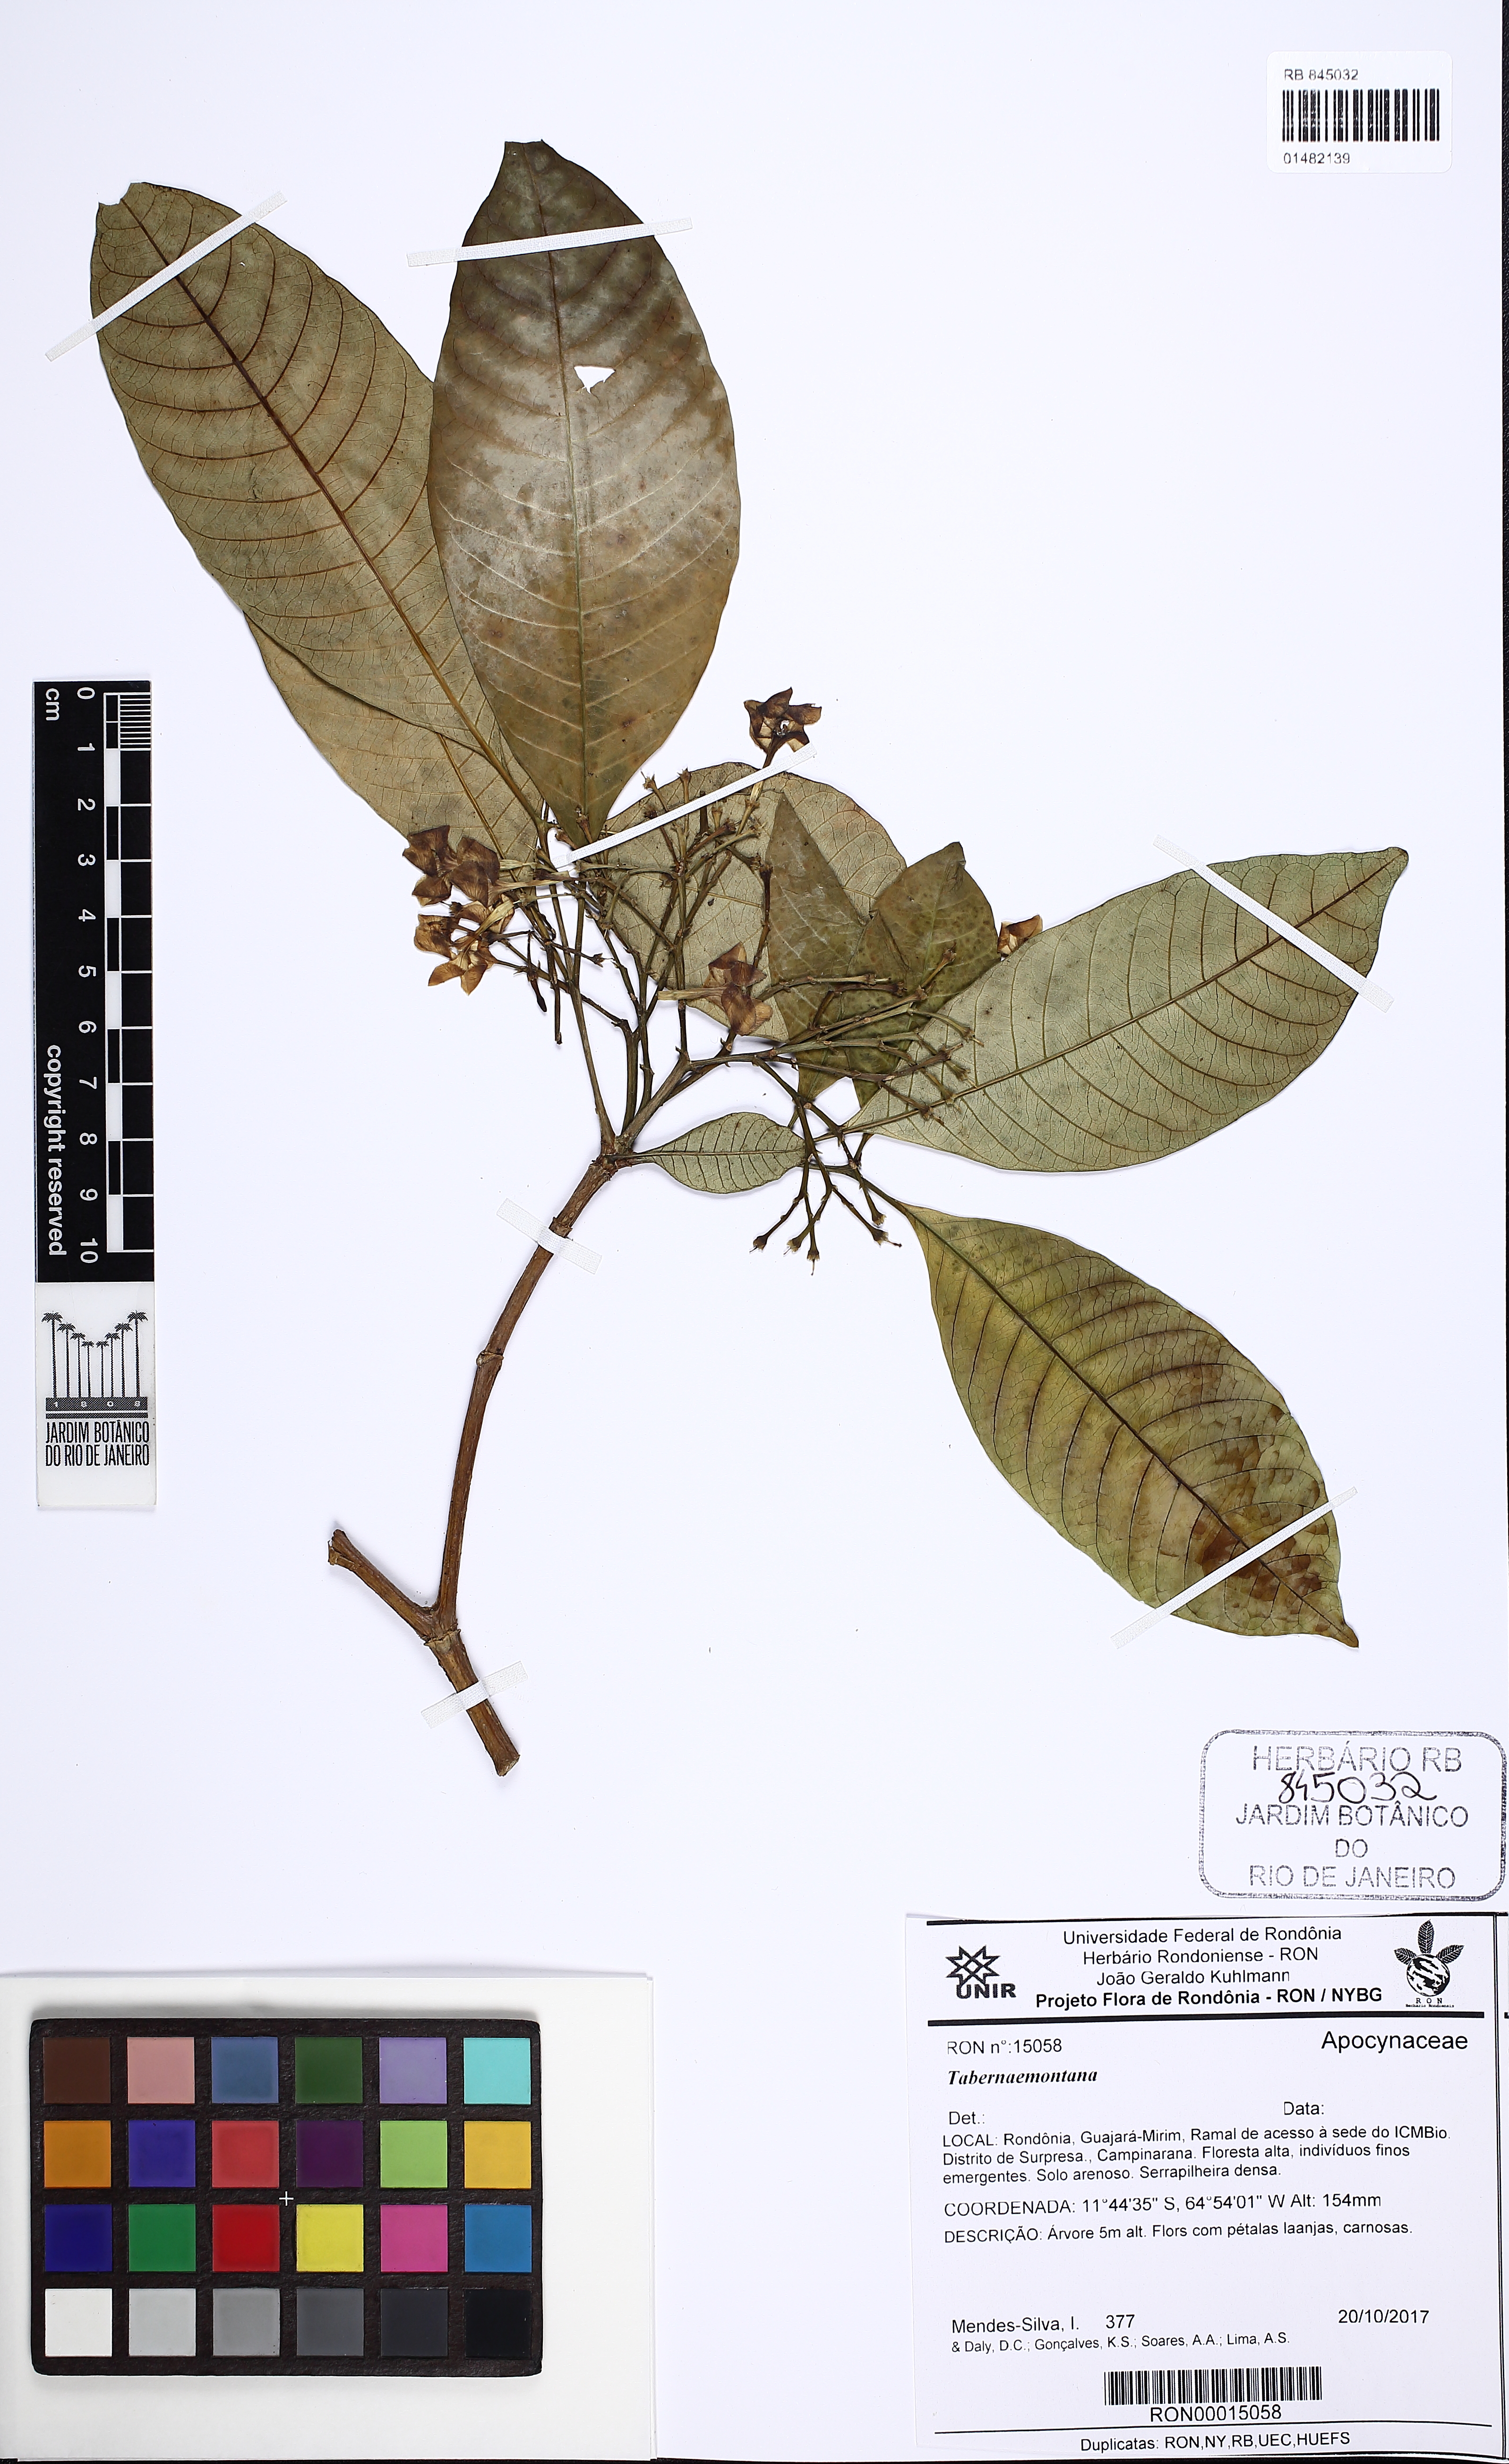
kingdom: Plantae
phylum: Tracheophyta
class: Magnoliopsida
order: Gentianales
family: Apocynaceae
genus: Tabernaemontana
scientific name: Tabernaemontana
